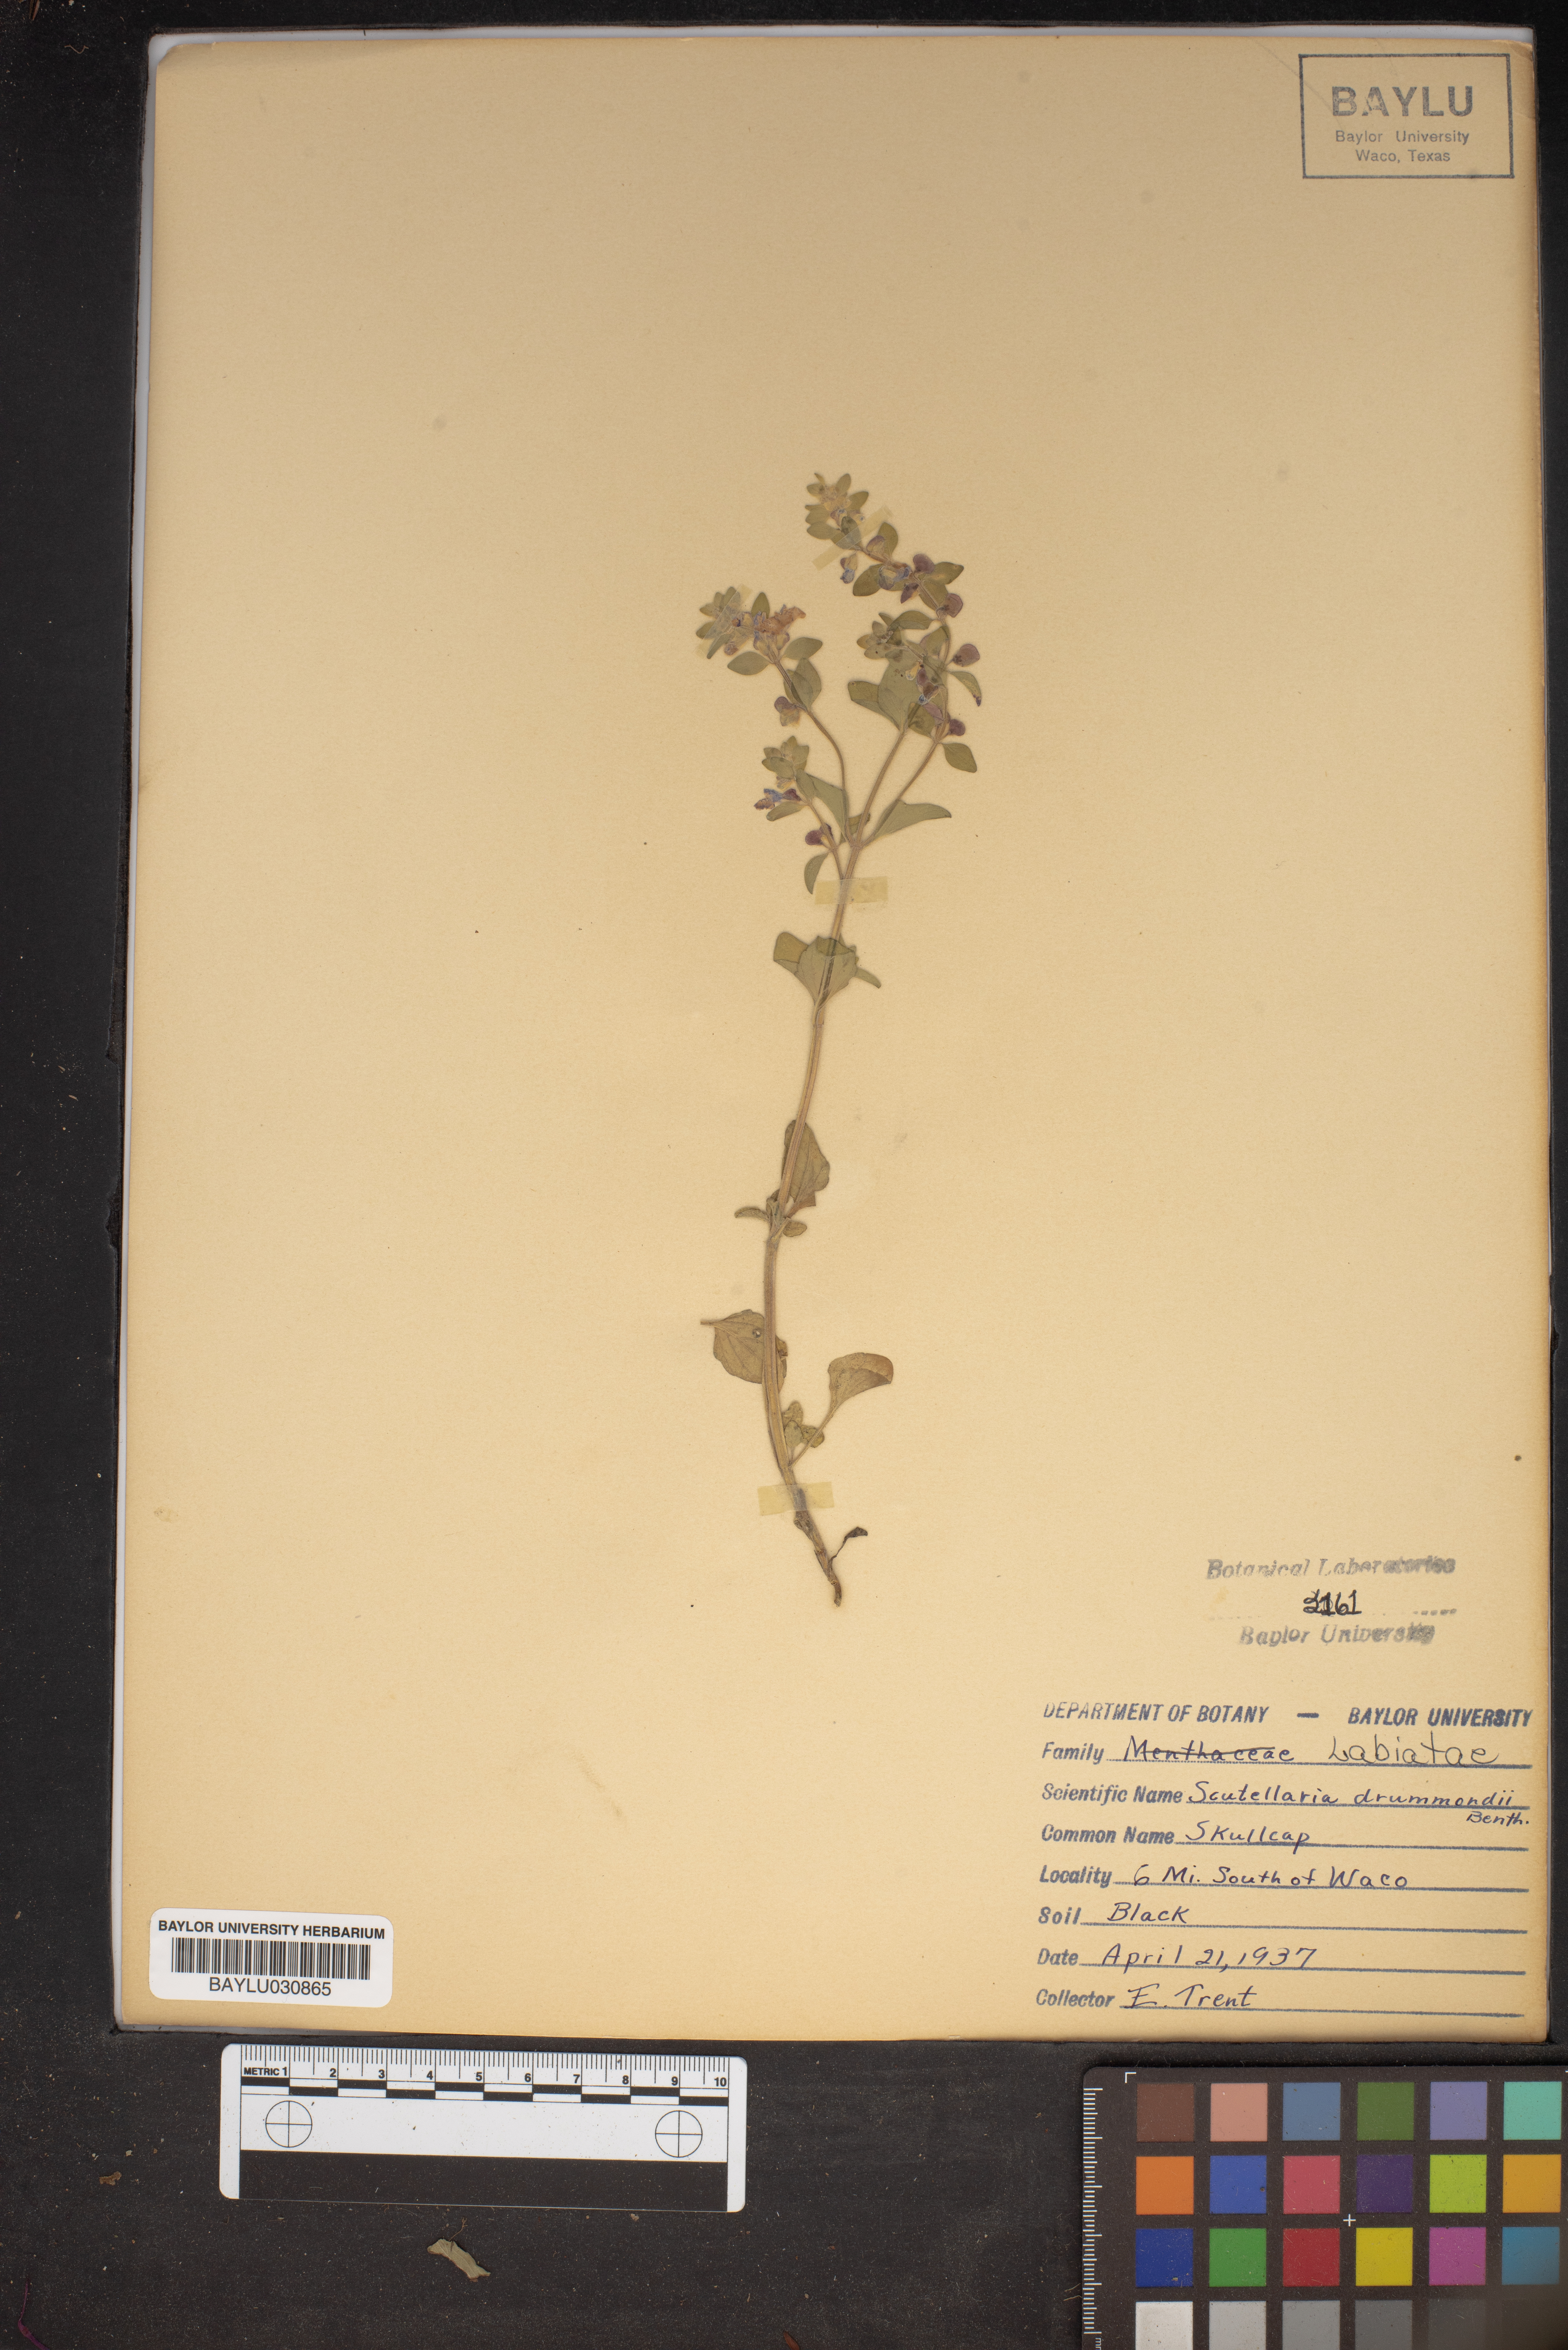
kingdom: Plantae
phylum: Tracheophyta
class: Magnoliopsida
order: Lamiales
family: Lamiaceae
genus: Scutellaria
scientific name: Scutellaria drummondii
